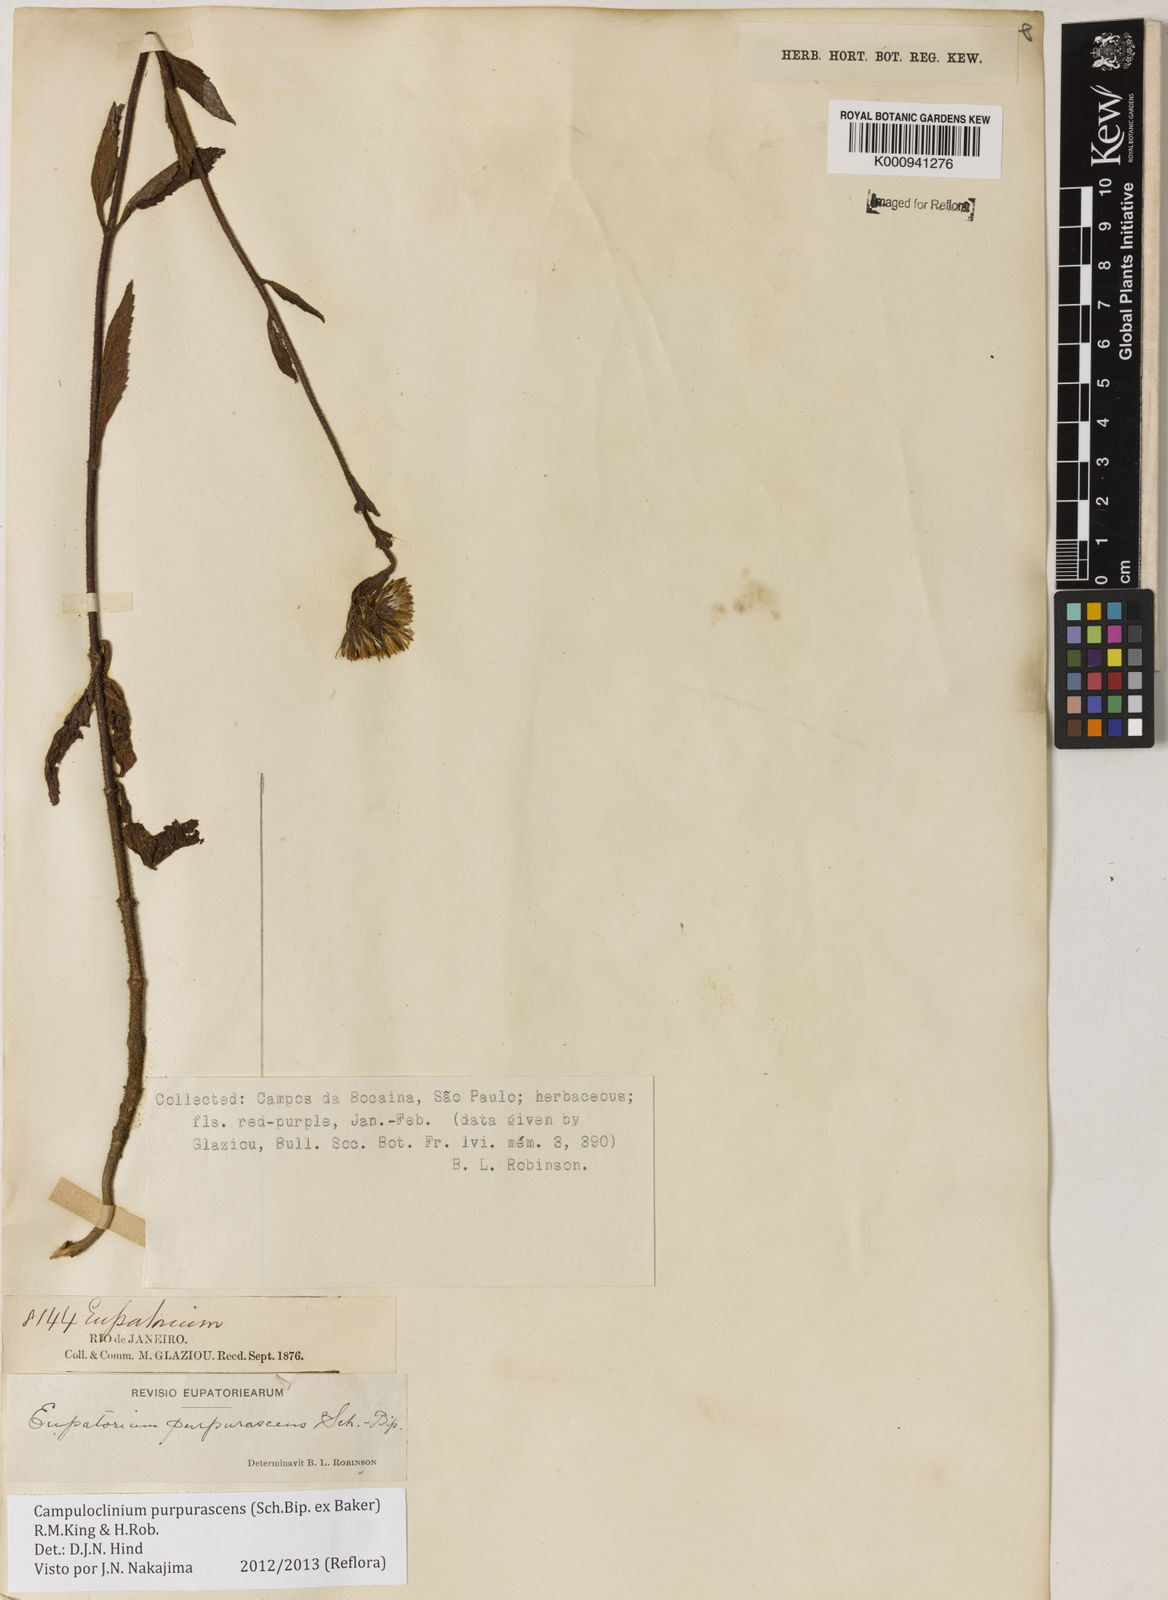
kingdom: Plantae
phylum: Tracheophyta
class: Magnoliopsida
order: Asterales
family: Asteraceae
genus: Campuloclinium
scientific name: Campuloclinium purpurascens
